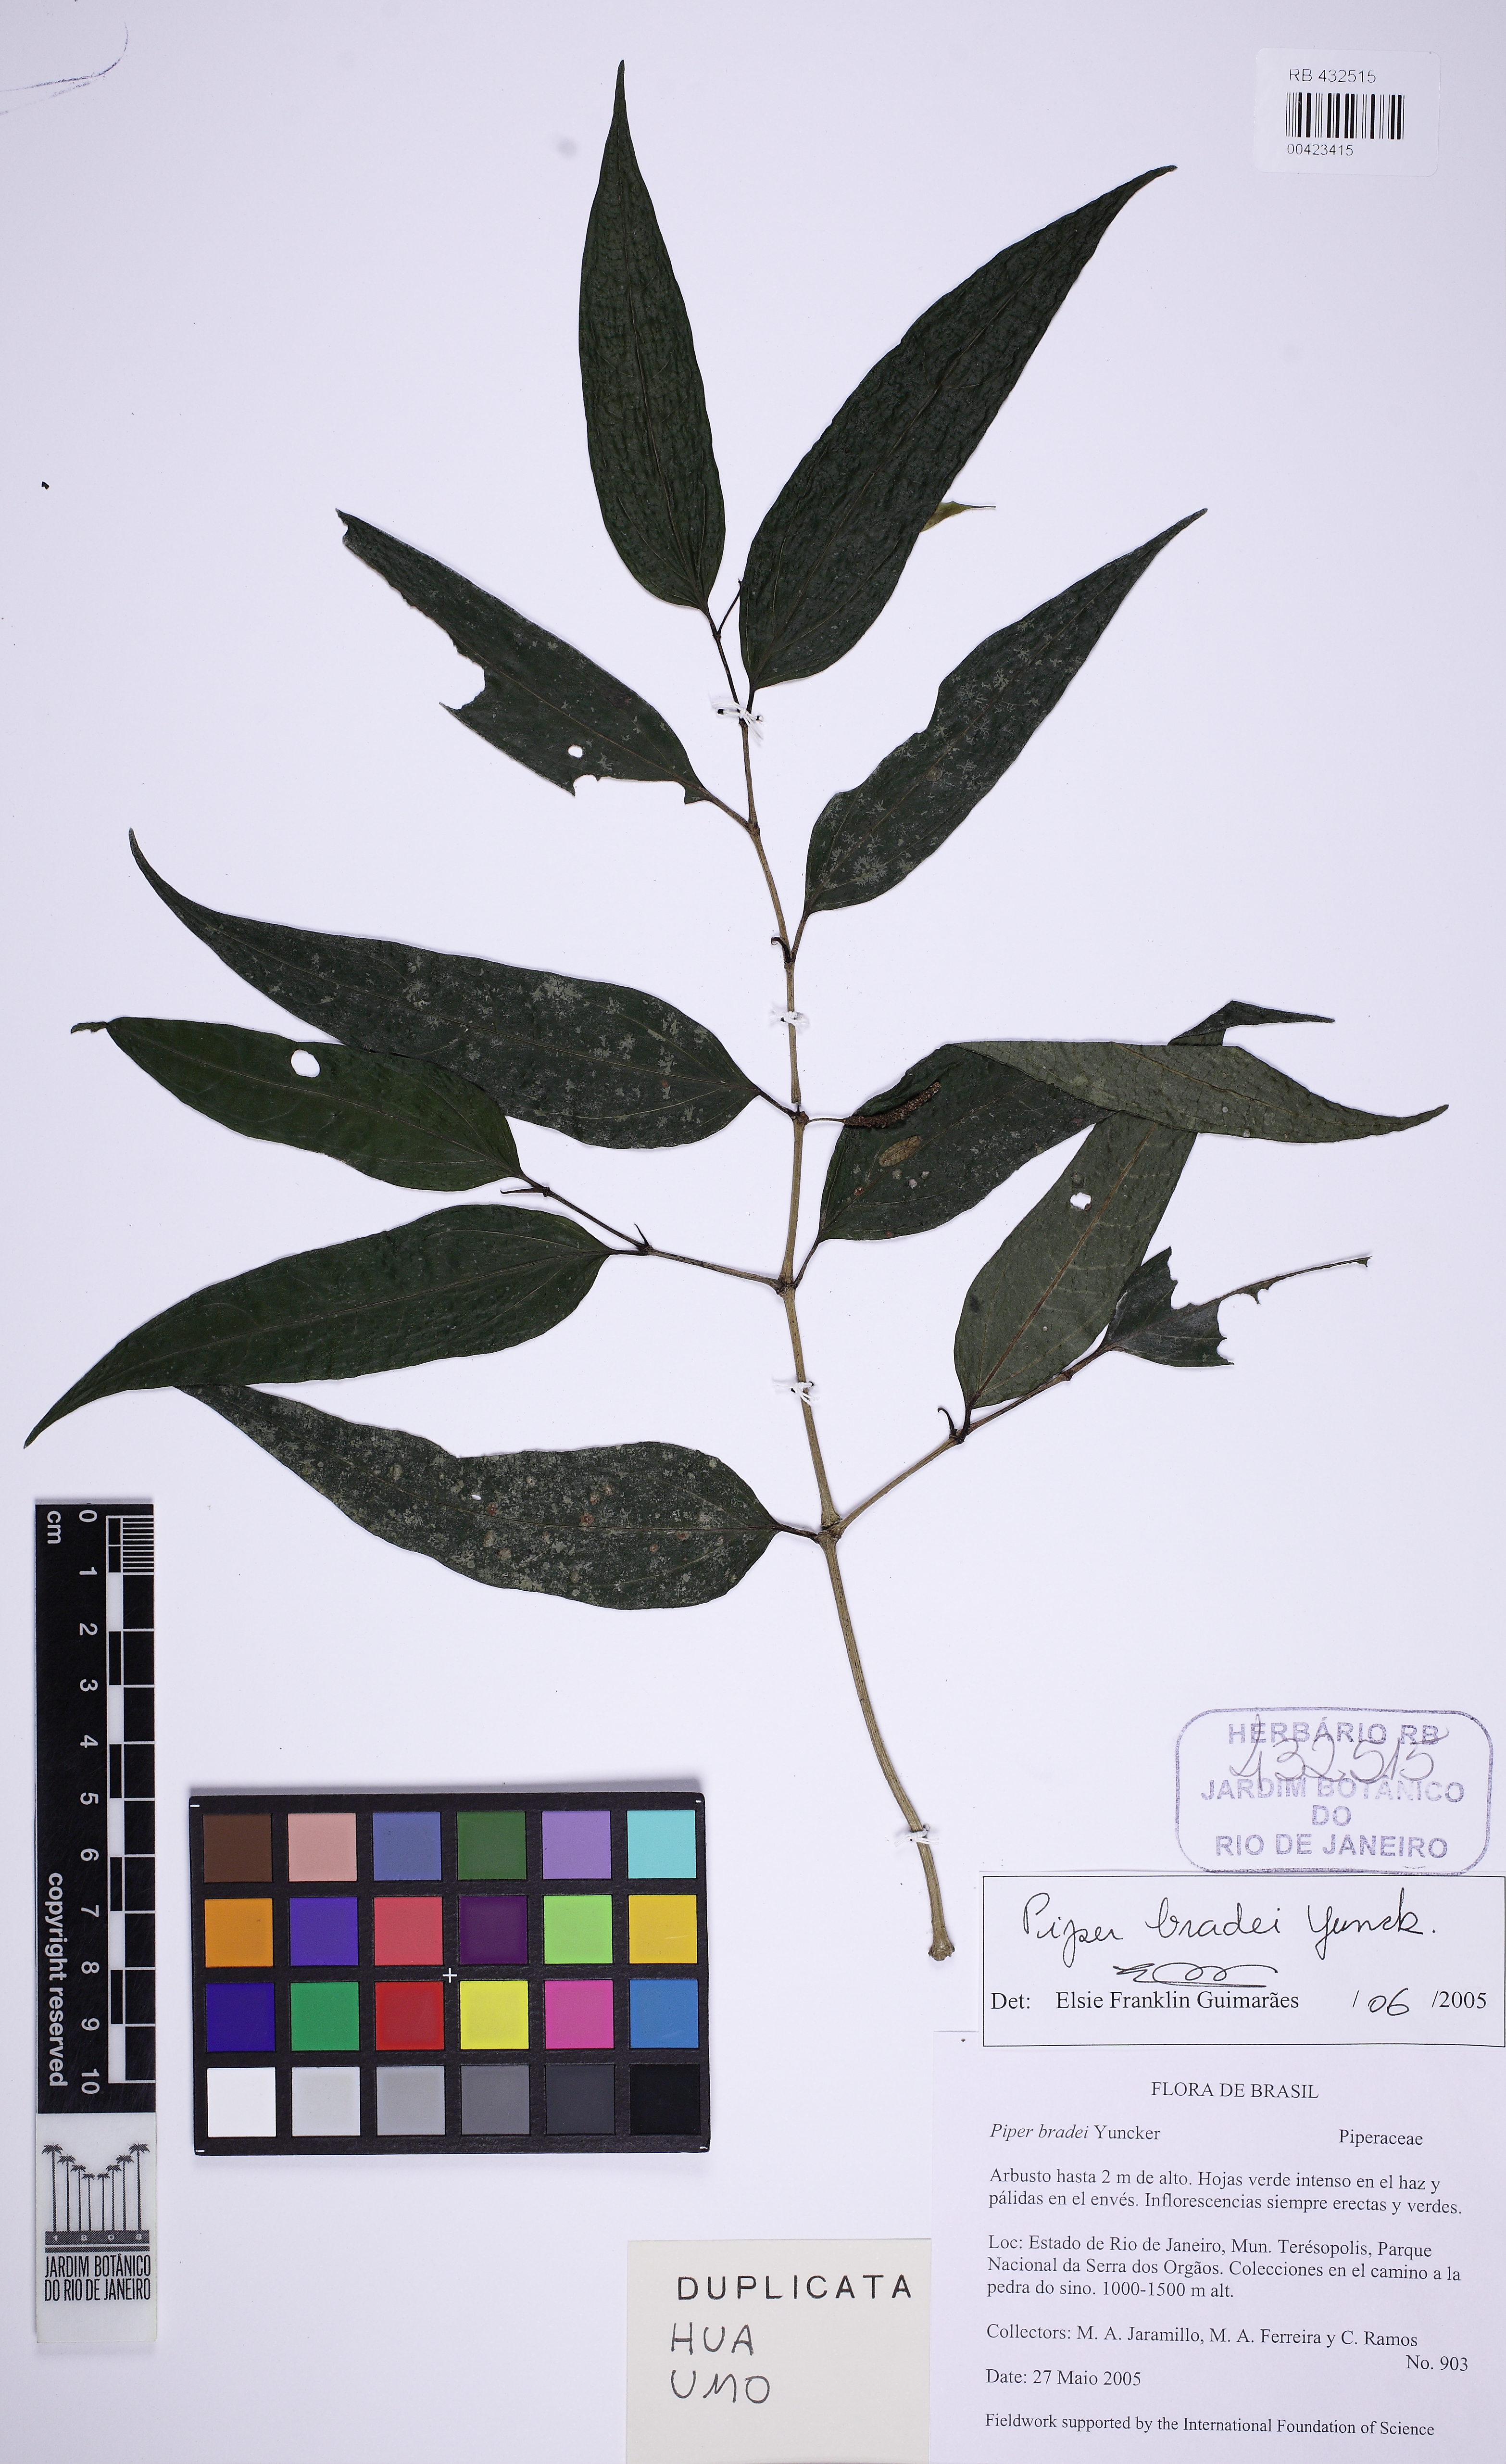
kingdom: Plantae
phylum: Tracheophyta
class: Magnoliopsida
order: Piperales
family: Piperaceae
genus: Piper
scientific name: Piper bradei
